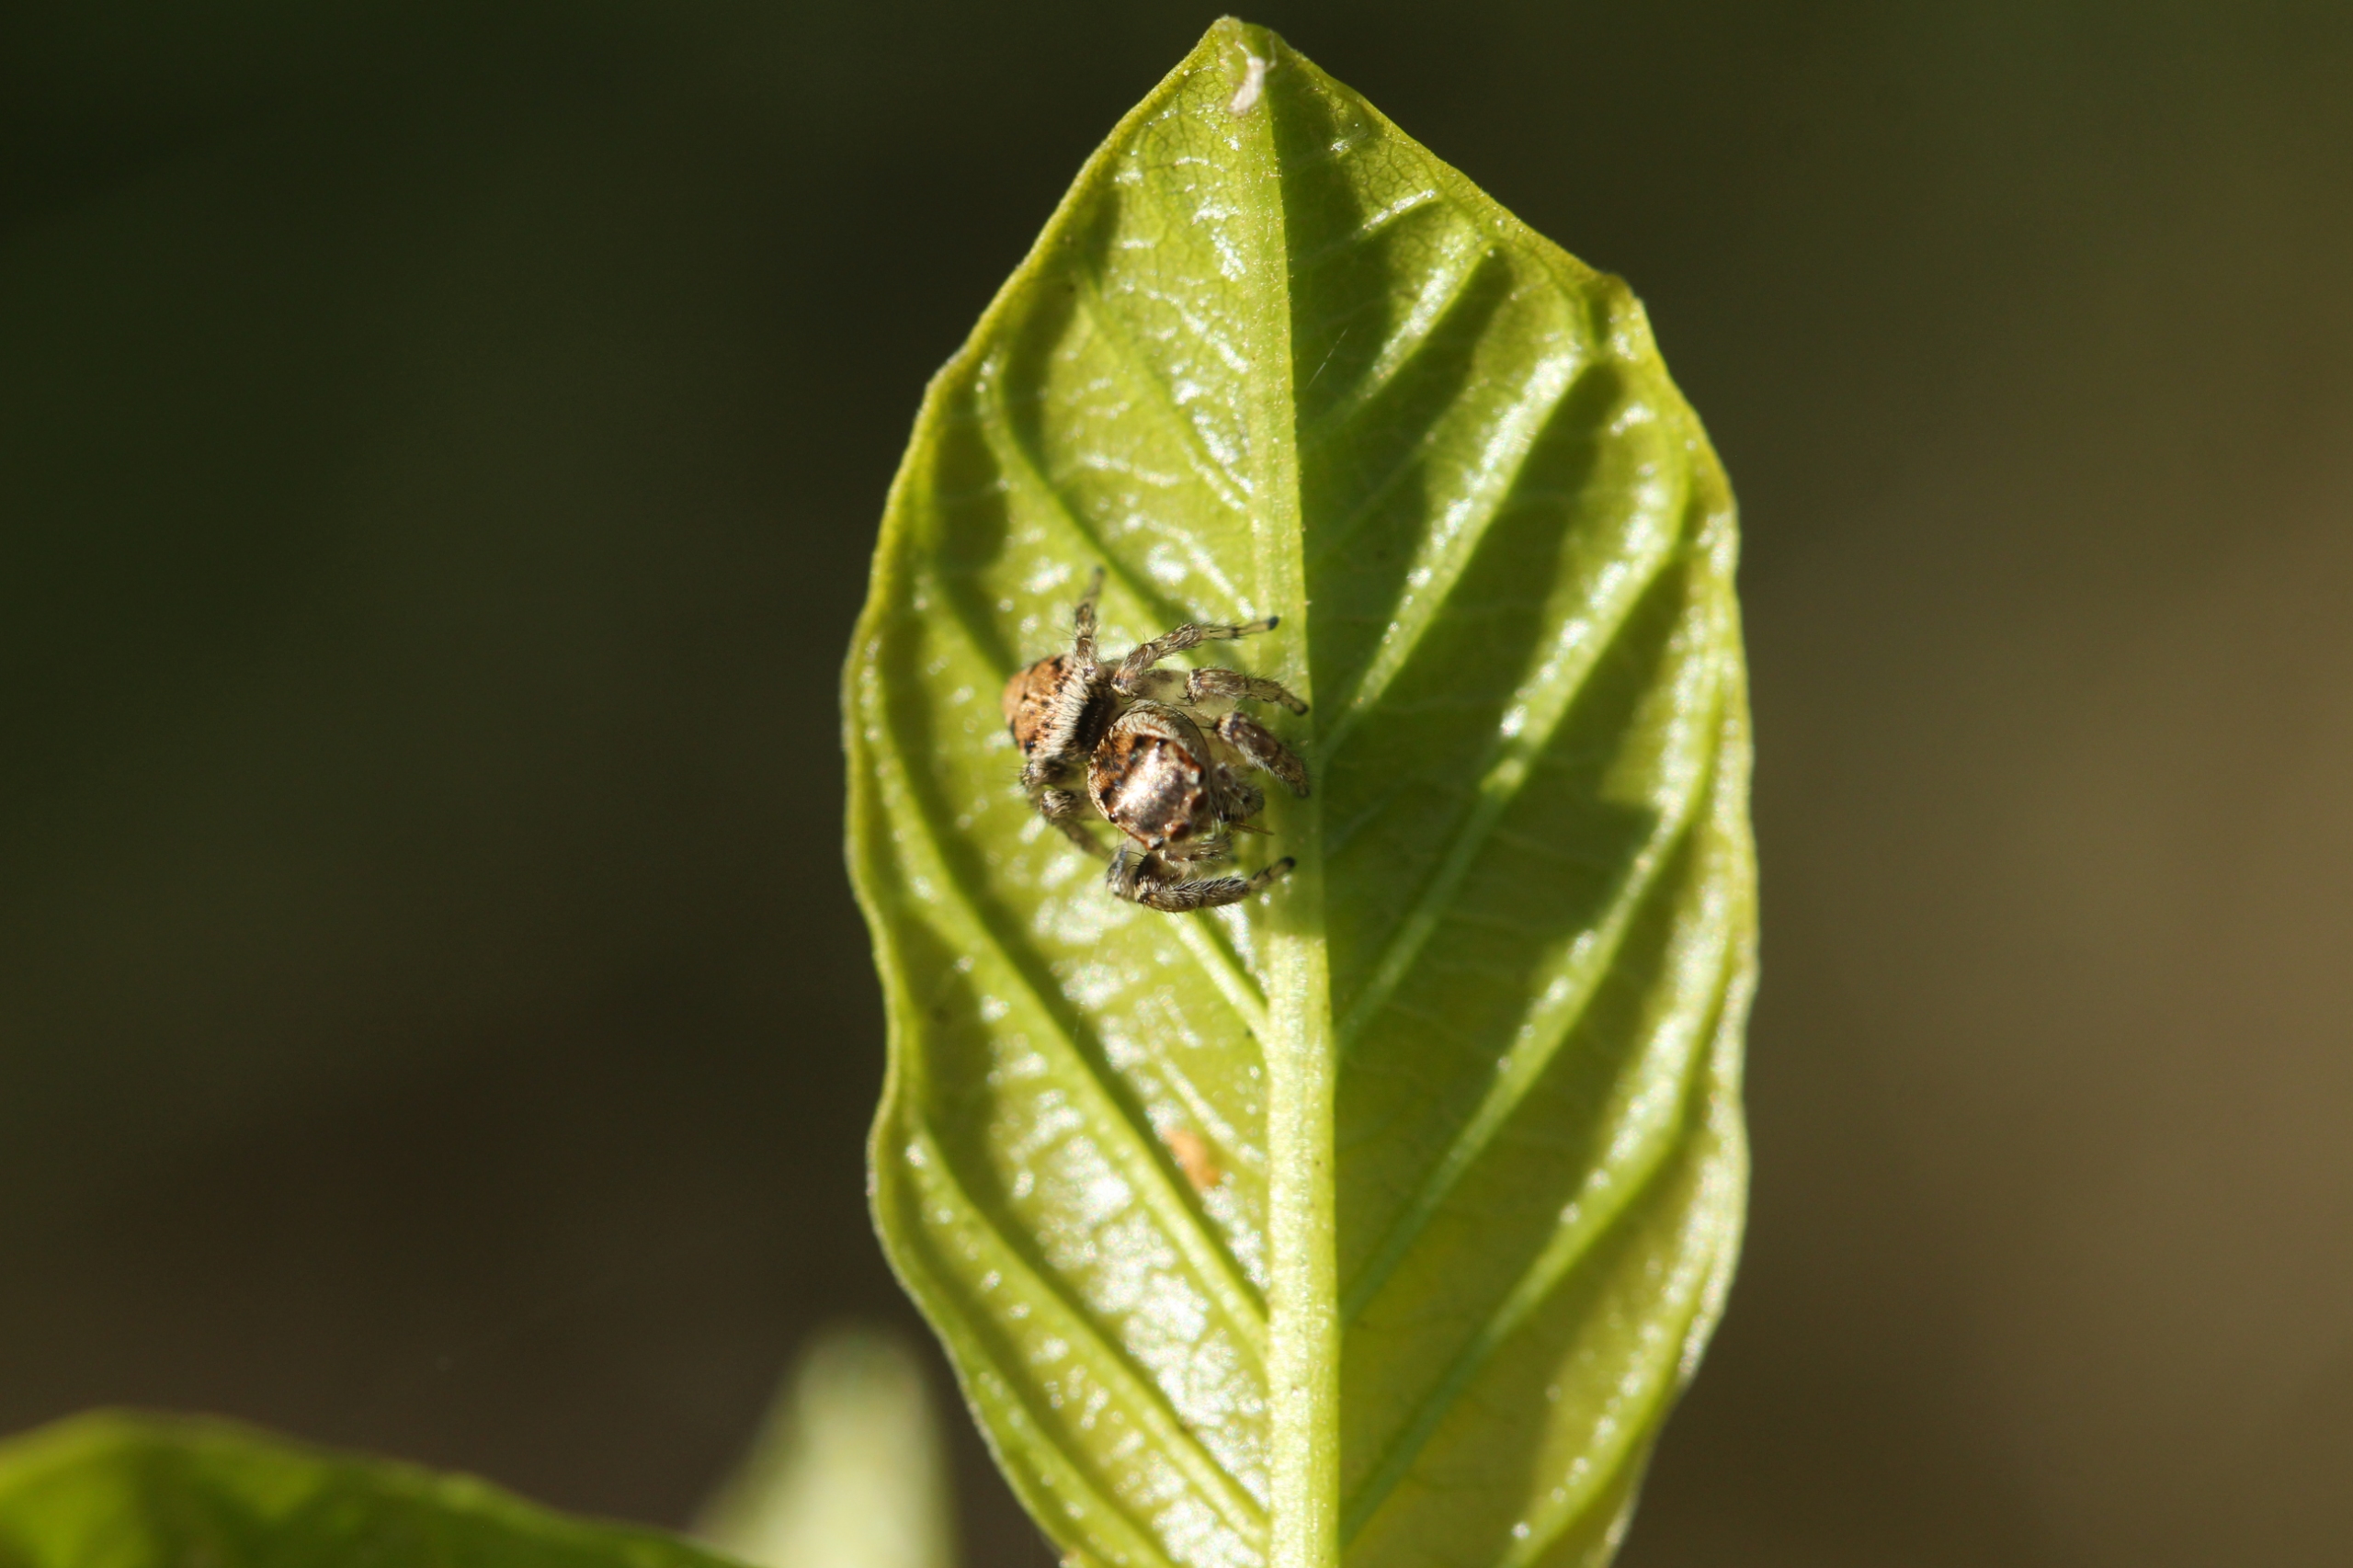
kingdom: Animalia
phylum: Arthropoda
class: Arachnida
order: Araneae
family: Salticidae
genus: Evarcha
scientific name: Evarcha falcata
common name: Broget springedderkop
